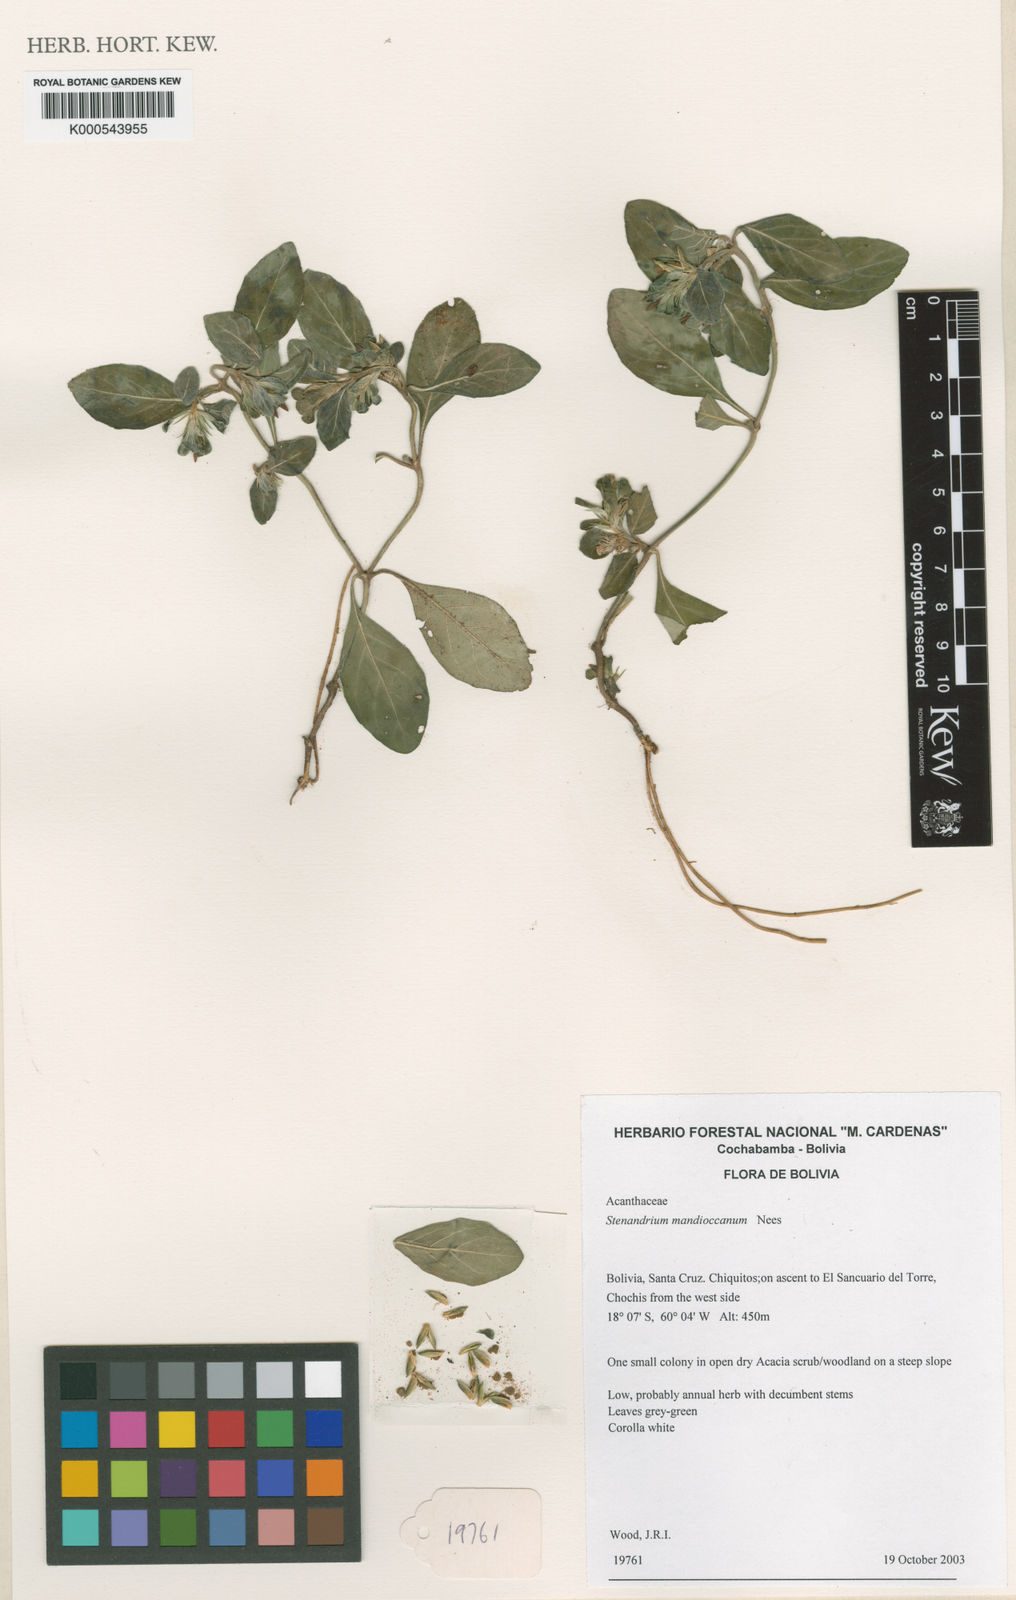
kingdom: Plantae
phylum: Tracheophyta
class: Magnoliopsida
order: Lamiales
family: Acanthaceae
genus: Stenandrium
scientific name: Stenandrium mandioccanum
